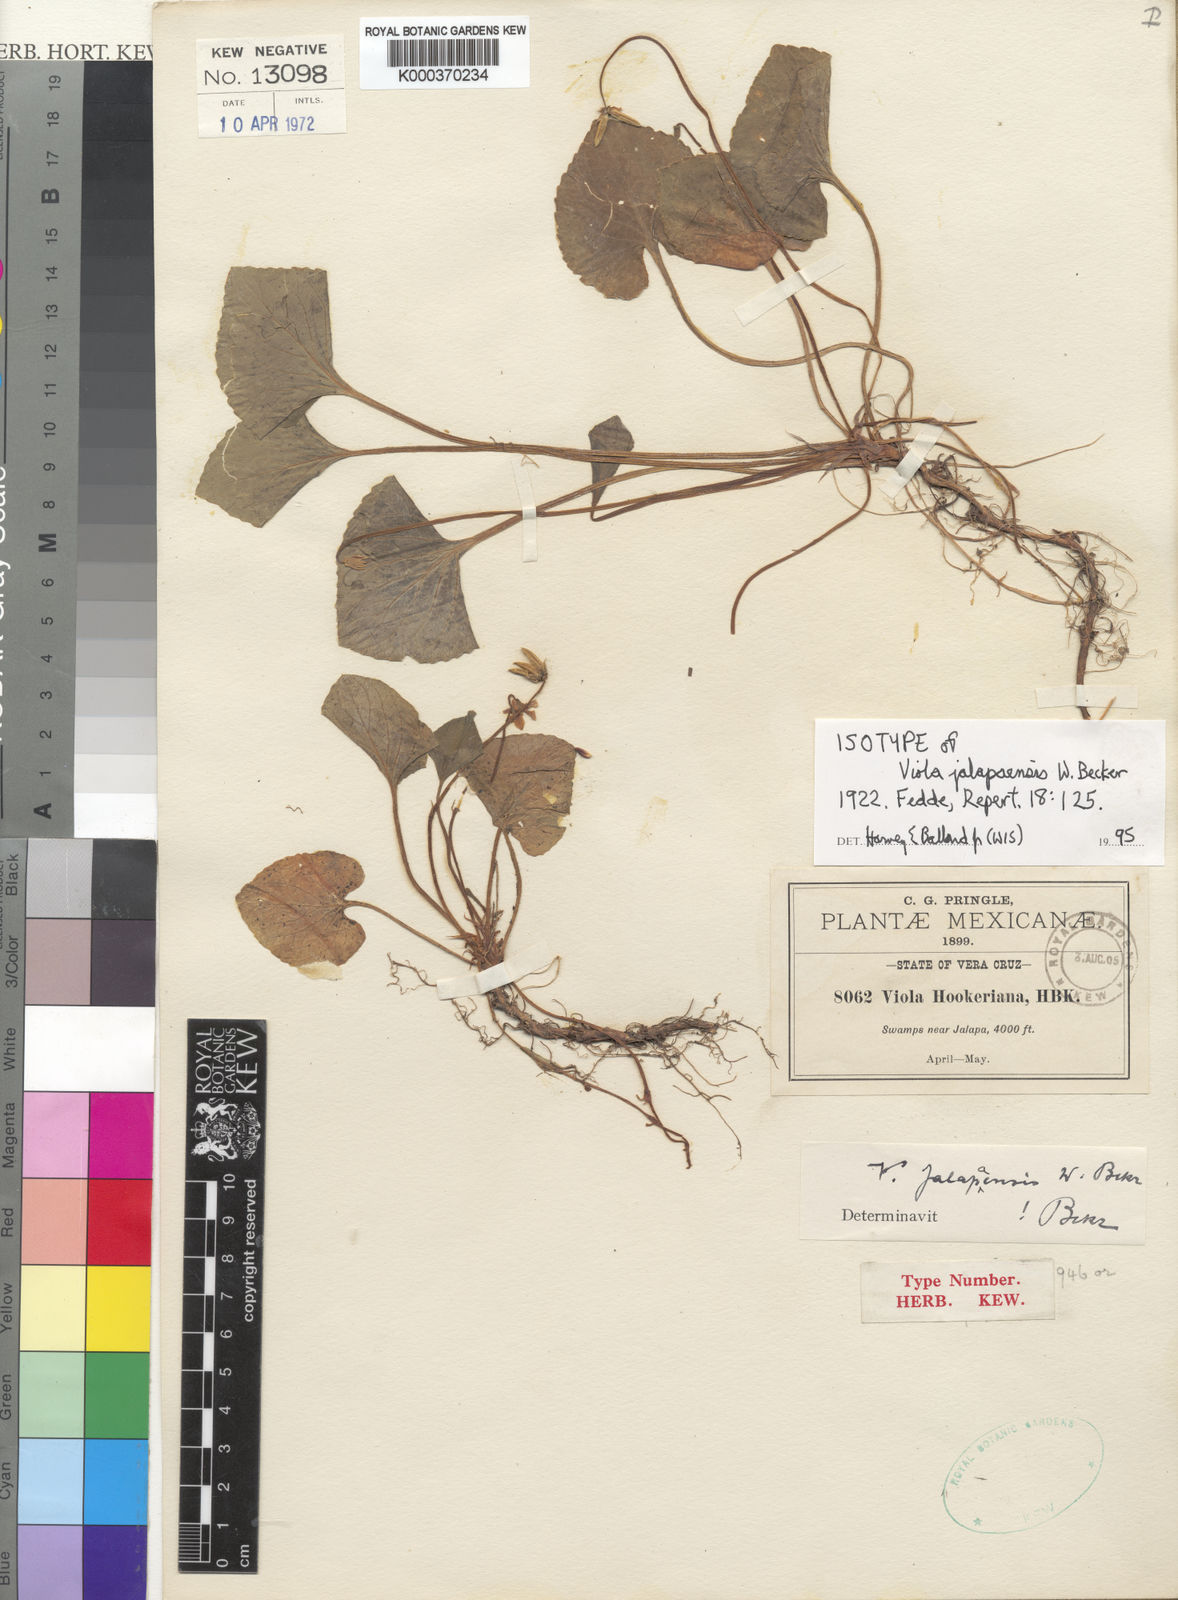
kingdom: Plantae
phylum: Tracheophyta
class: Magnoliopsida
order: Malpighiales
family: Violaceae
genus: Viola
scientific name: Viola jalapaensis
